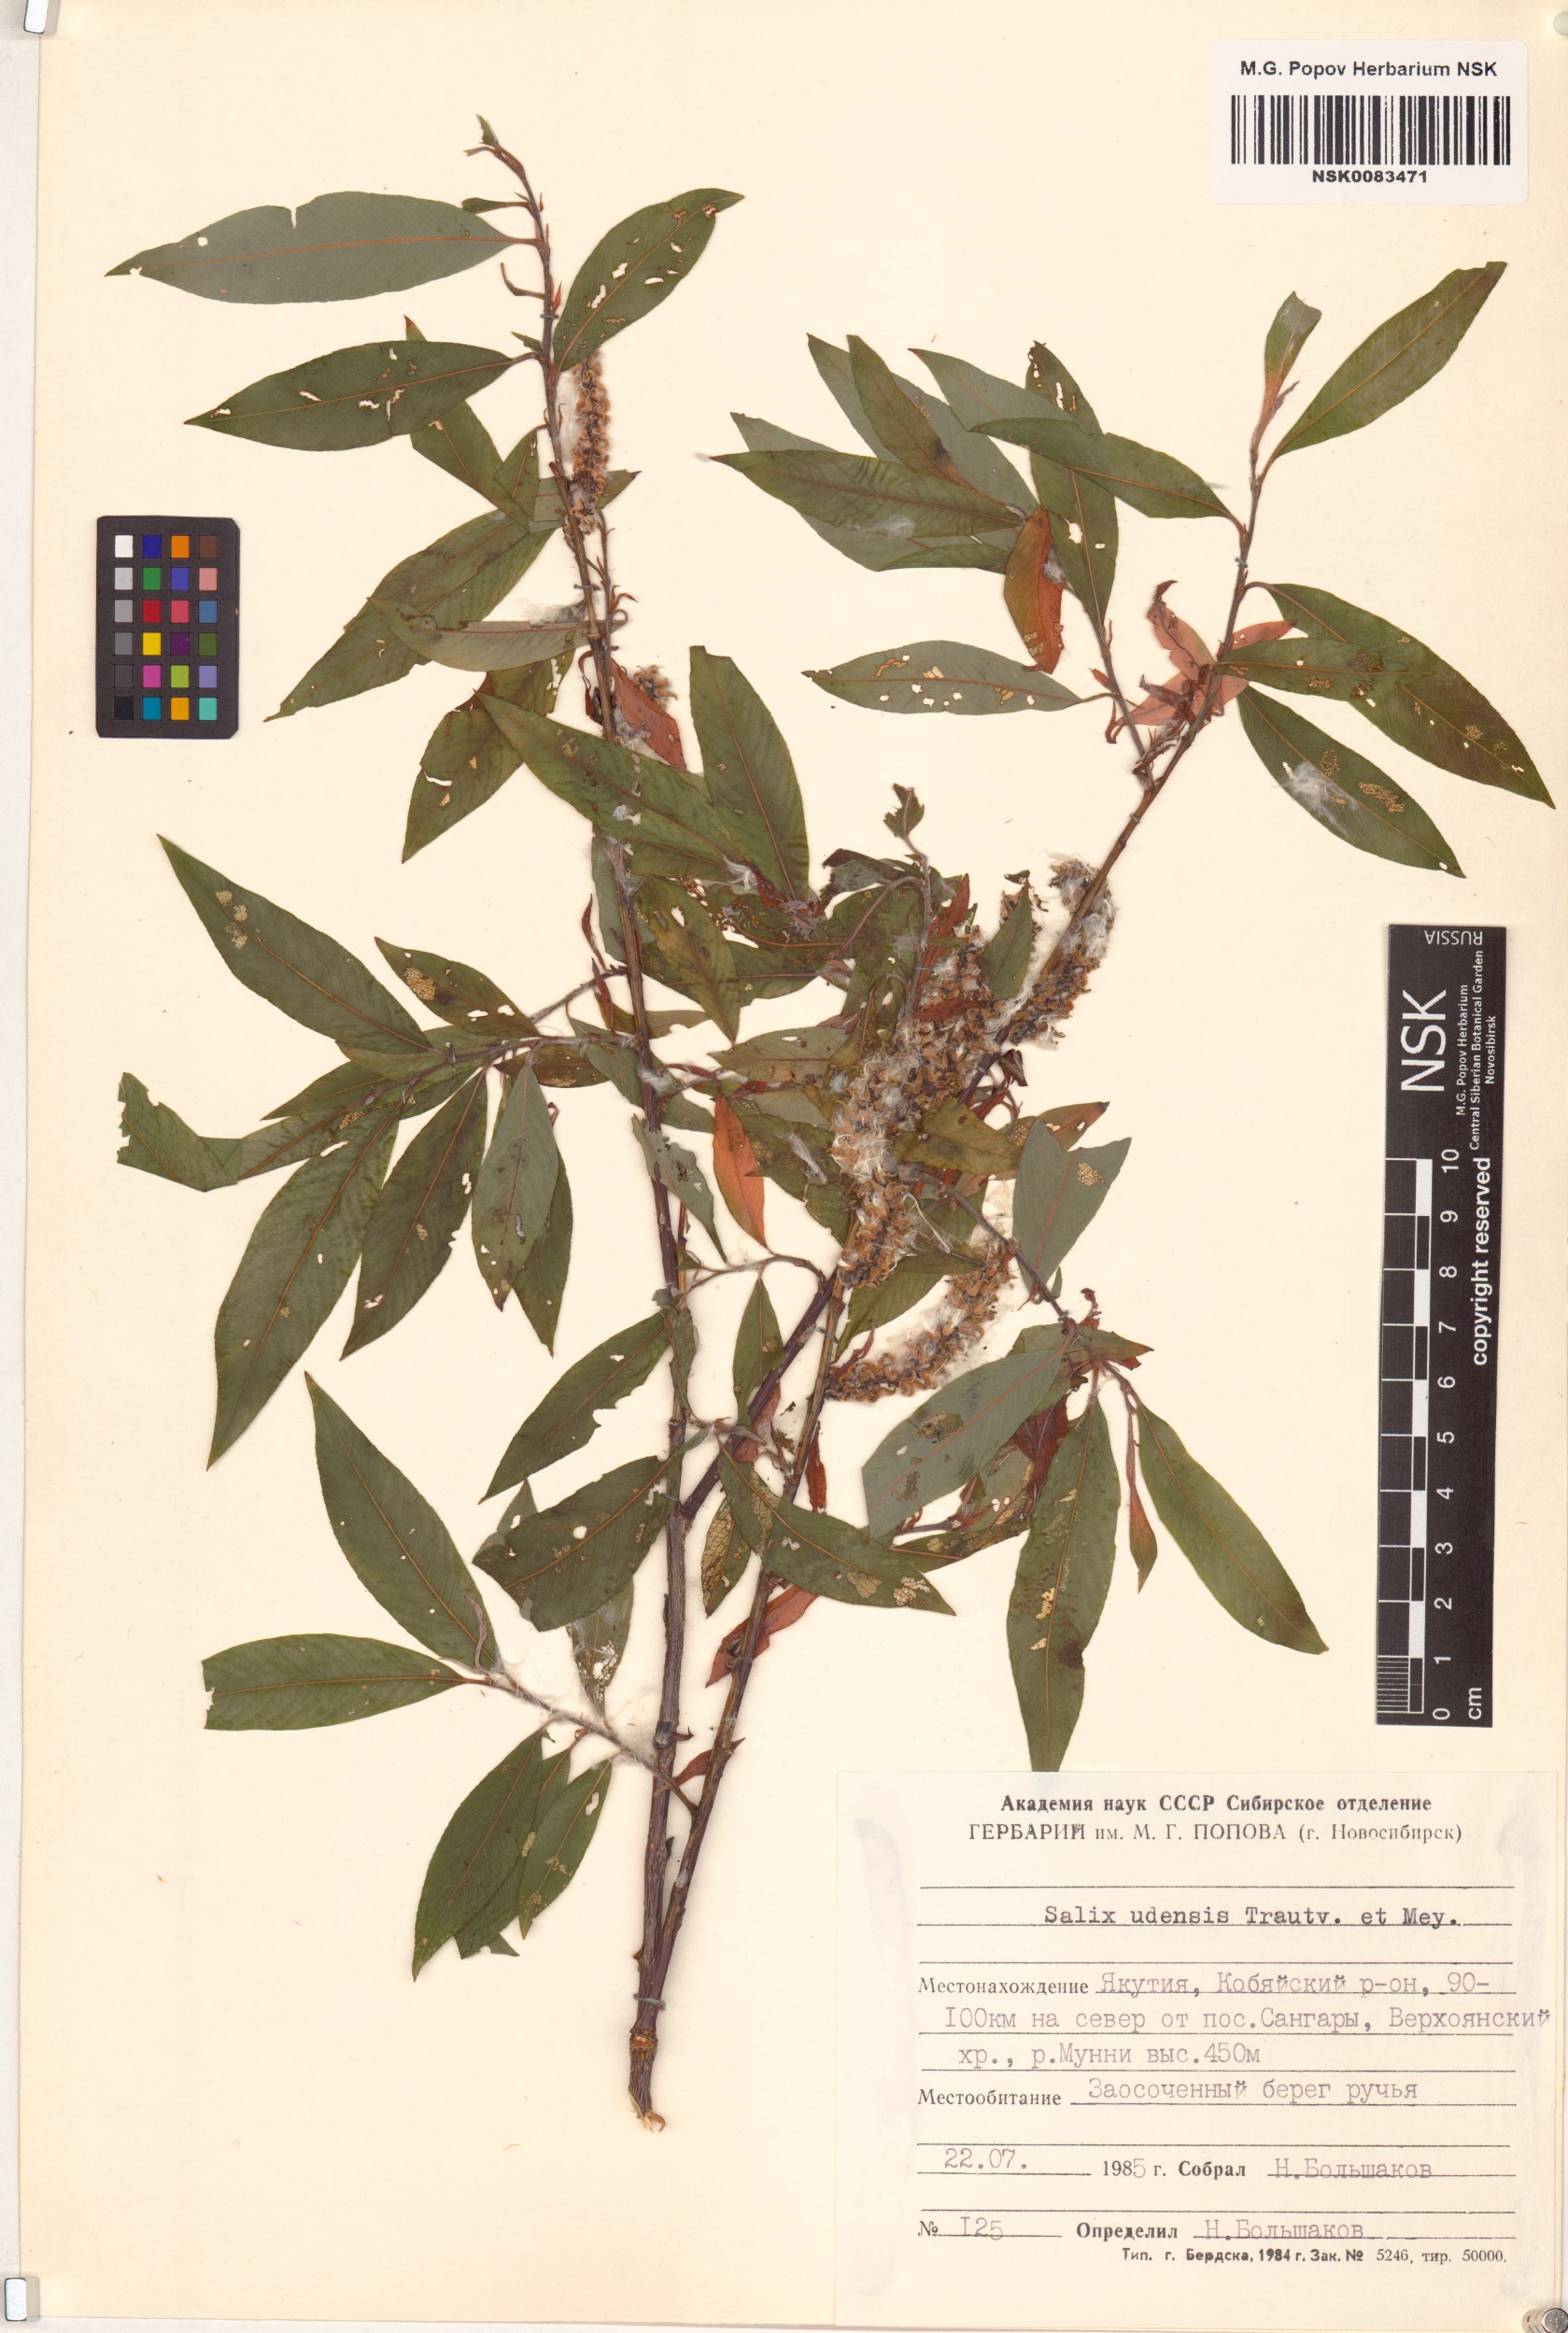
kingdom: Plantae
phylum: Tracheophyta
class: Magnoliopsida
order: Malpighiales
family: Salicaceae
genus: Salix
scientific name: Salix udensis
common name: Sachalin willow
